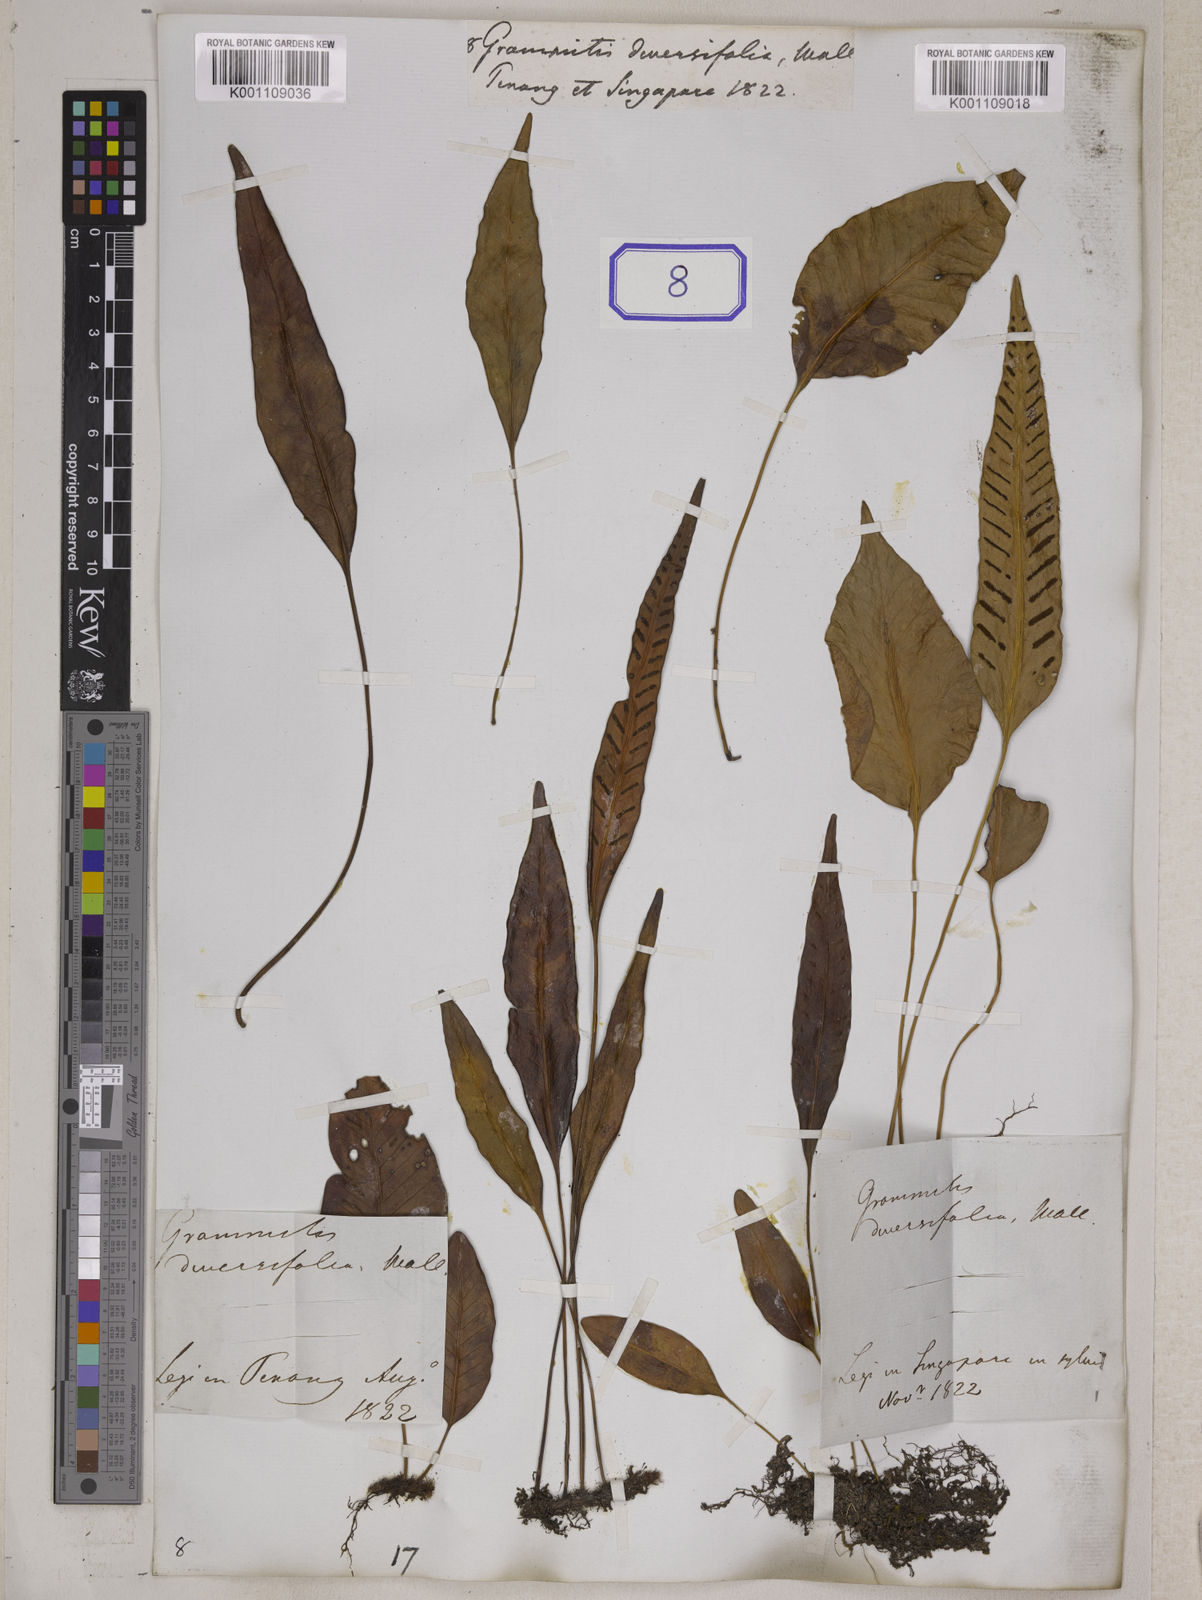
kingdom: Plantae
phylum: Tracheophyta
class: Polypodiopsida
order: Polypodiales
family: Polypodiaceae
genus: Microsorum
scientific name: Microsorum heterocarpum
